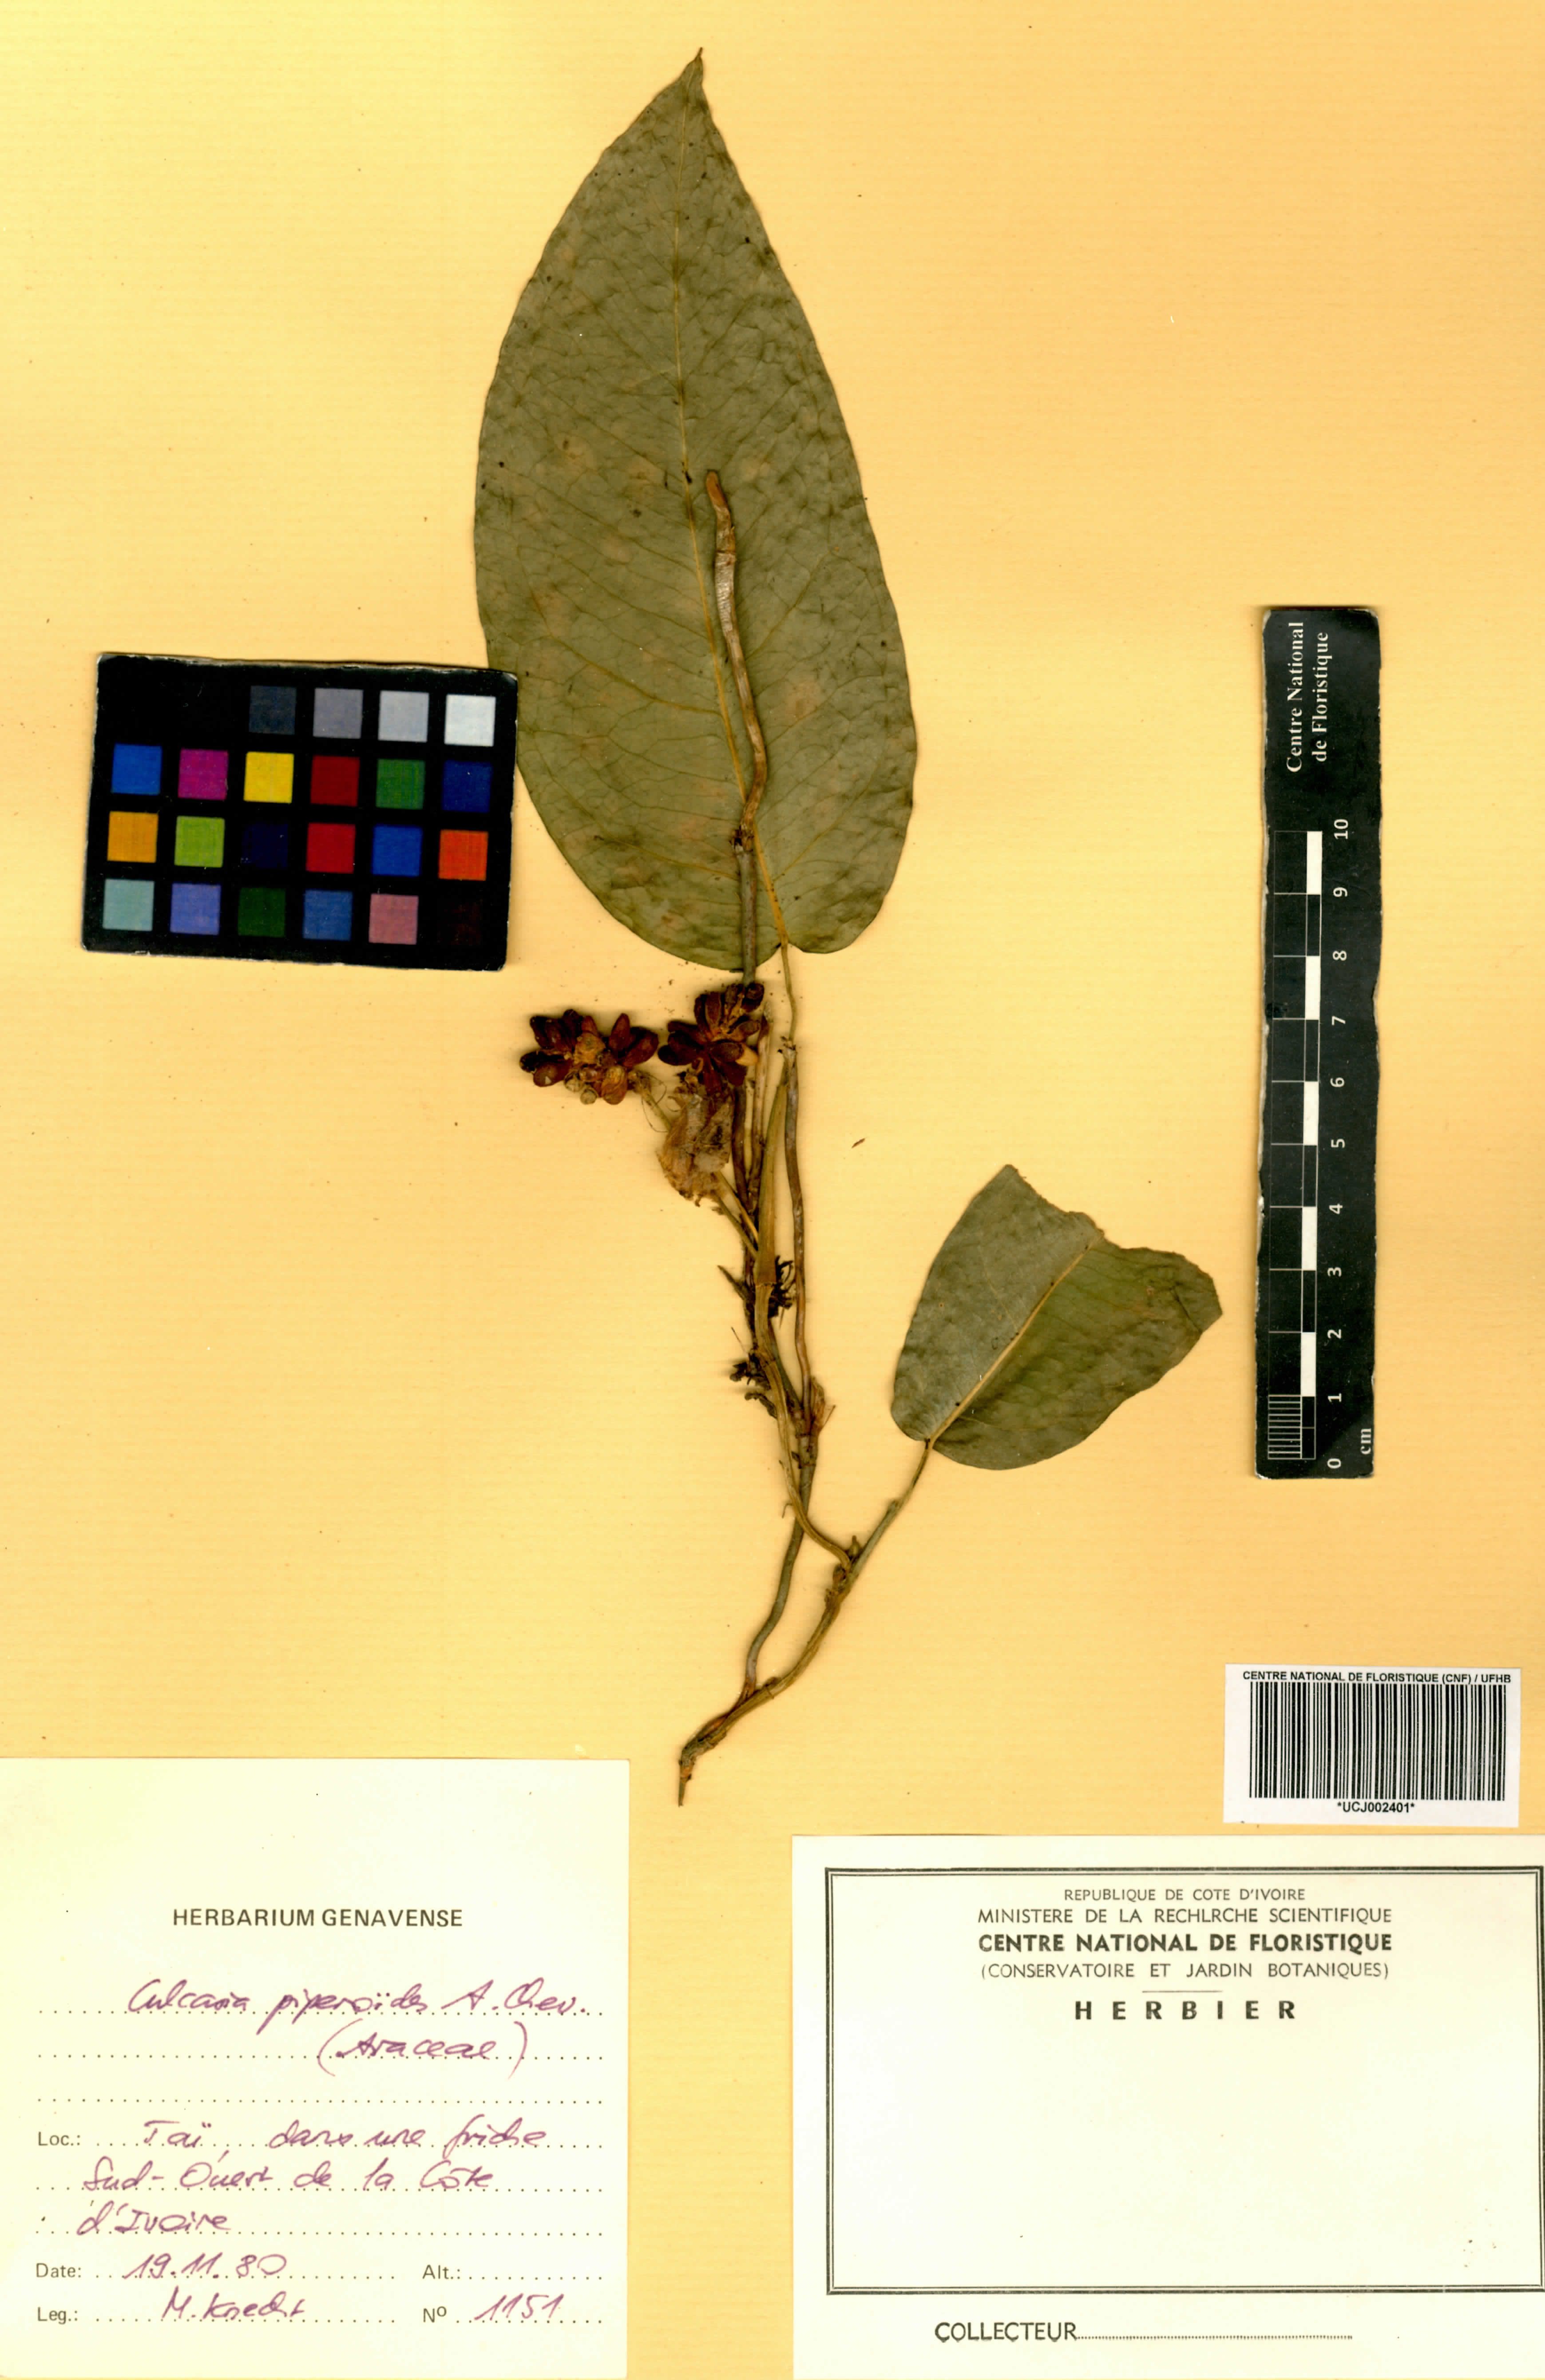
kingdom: Plantae
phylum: Tracheophyta
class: Liliopsida
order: Alismatales
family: Araceae
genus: Culcasia
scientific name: Culcasia parviflora
